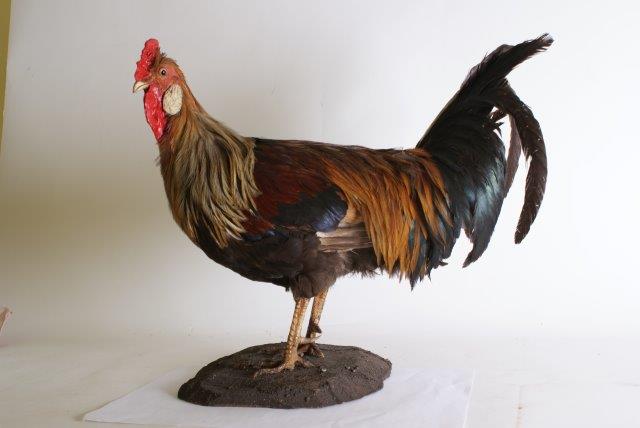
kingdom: Animalia
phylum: Chordata
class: Aves
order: Galliformes
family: Phasianidae
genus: Gallus
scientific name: Gallus gallus
